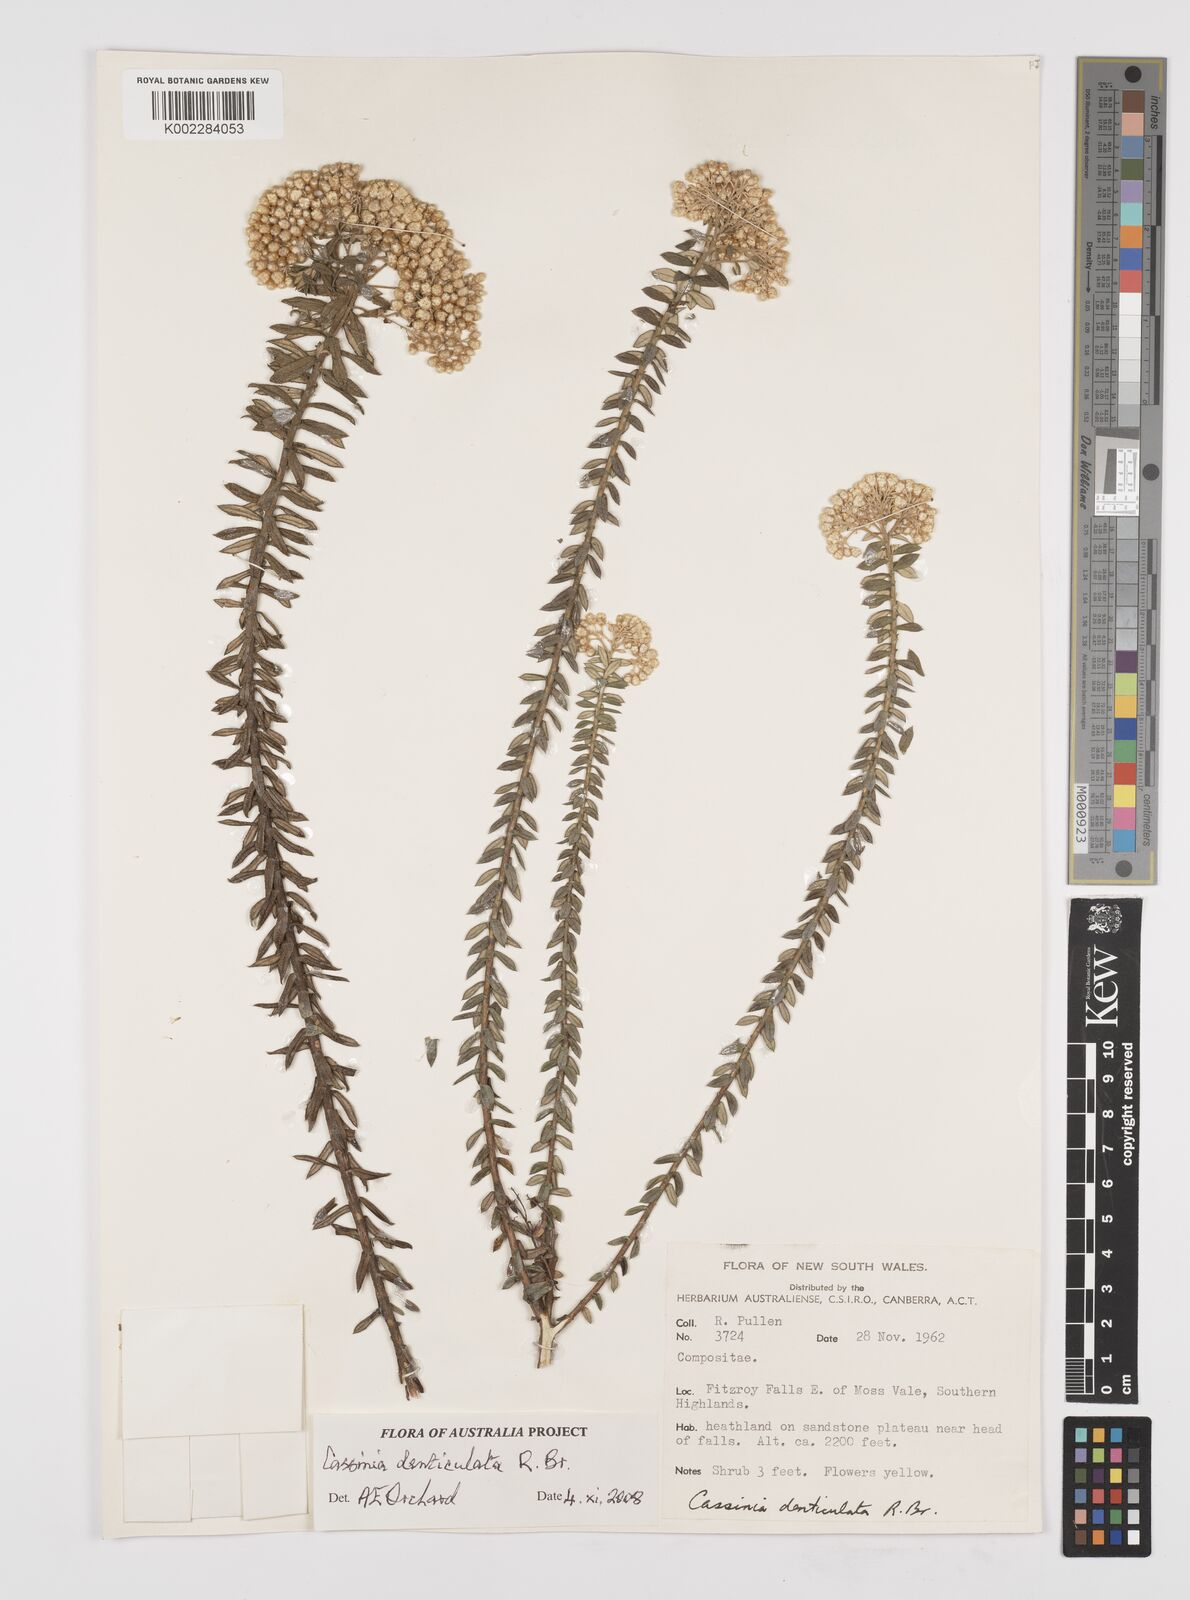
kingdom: Plantae
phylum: Tracheophyta
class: Magnoliopsida
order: Asterales
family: Asteraceae
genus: Cassinia
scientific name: Cassinia denticulata
